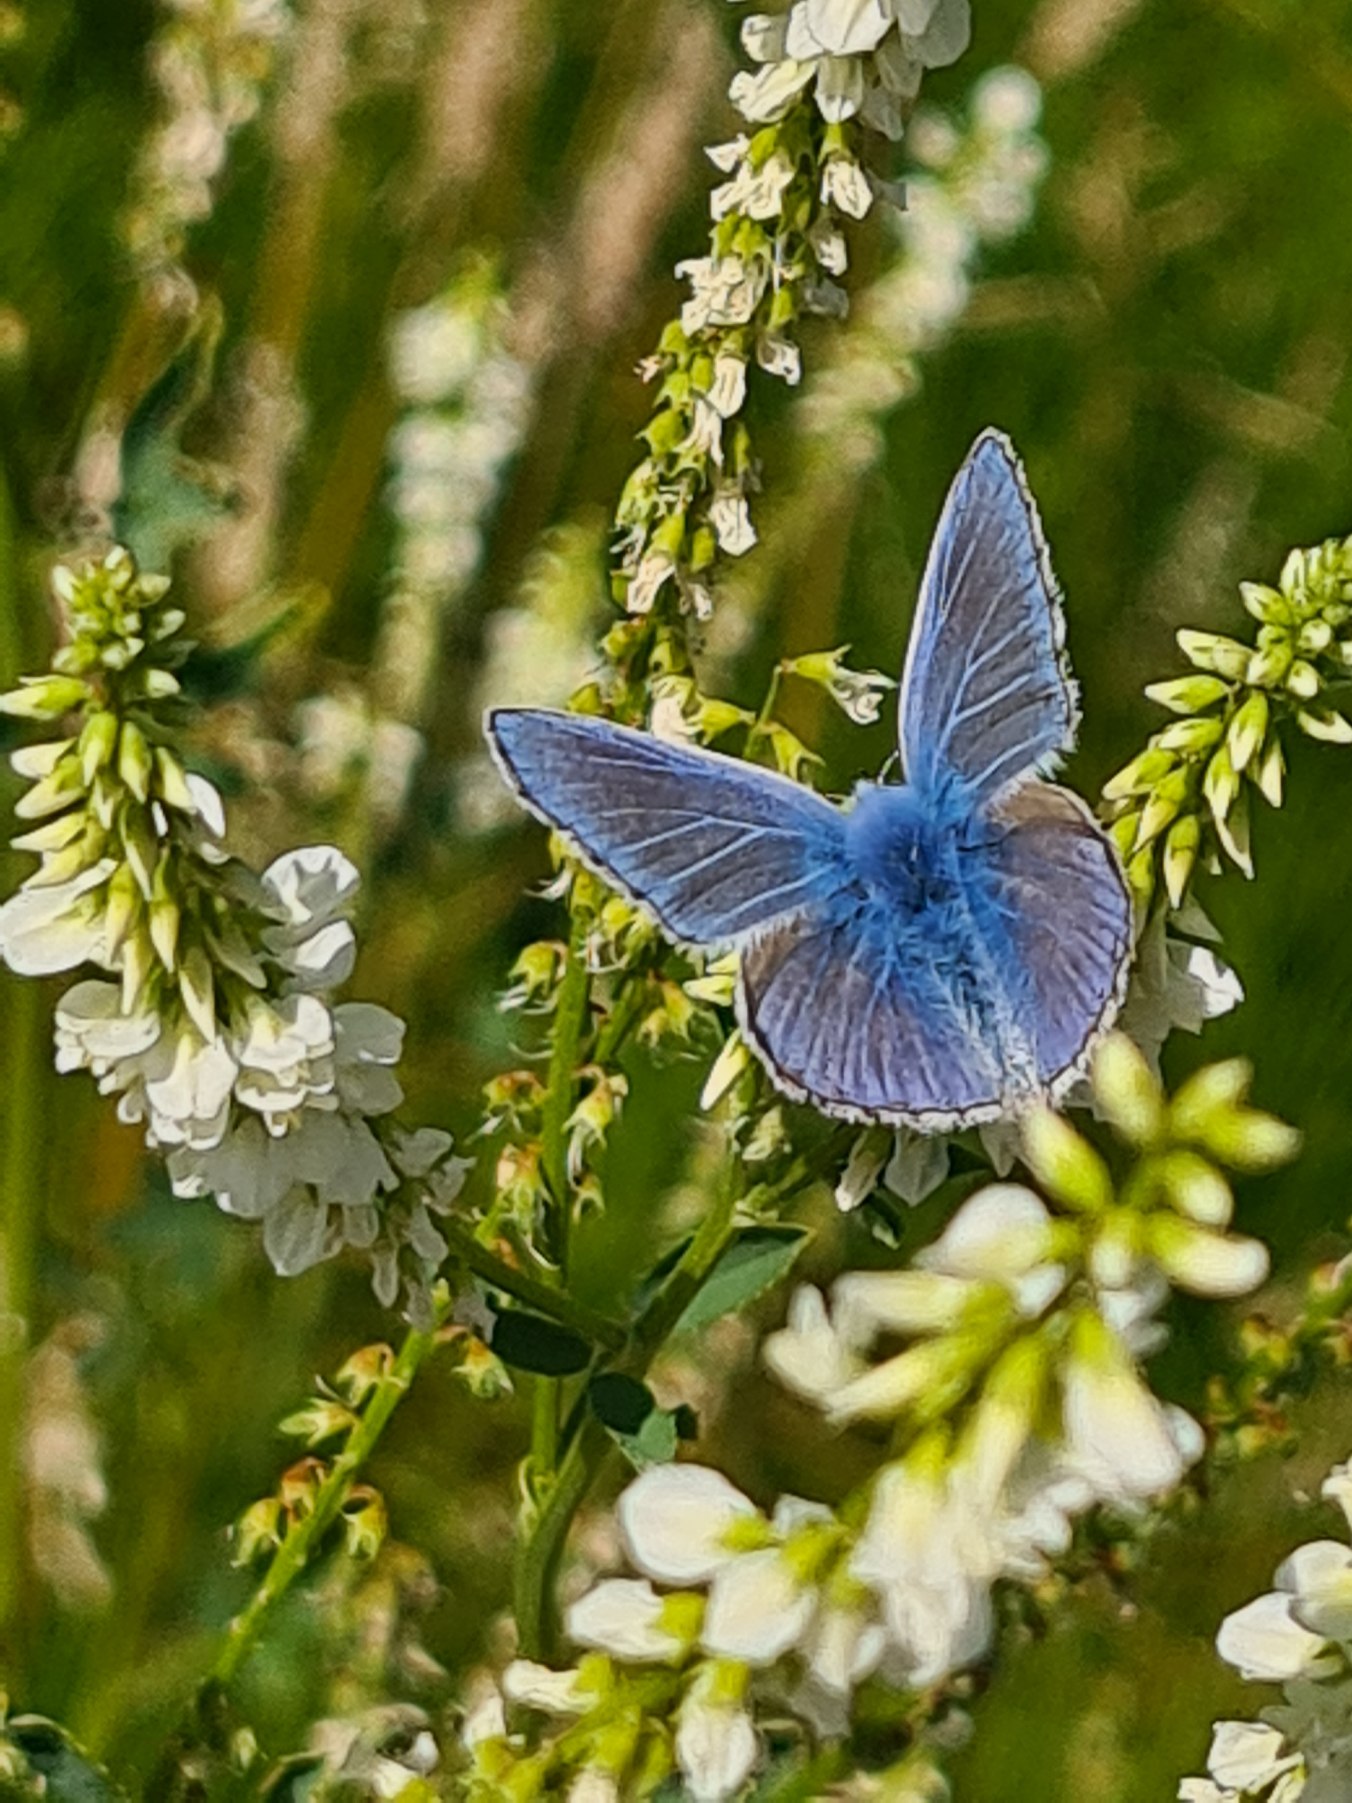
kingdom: Animalia
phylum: Arthropoda
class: Insecta
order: Lepidoptera
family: Lycaenidae
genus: Polyommatus
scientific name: Polyommatus icarus
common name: Almindelig blåfugl
